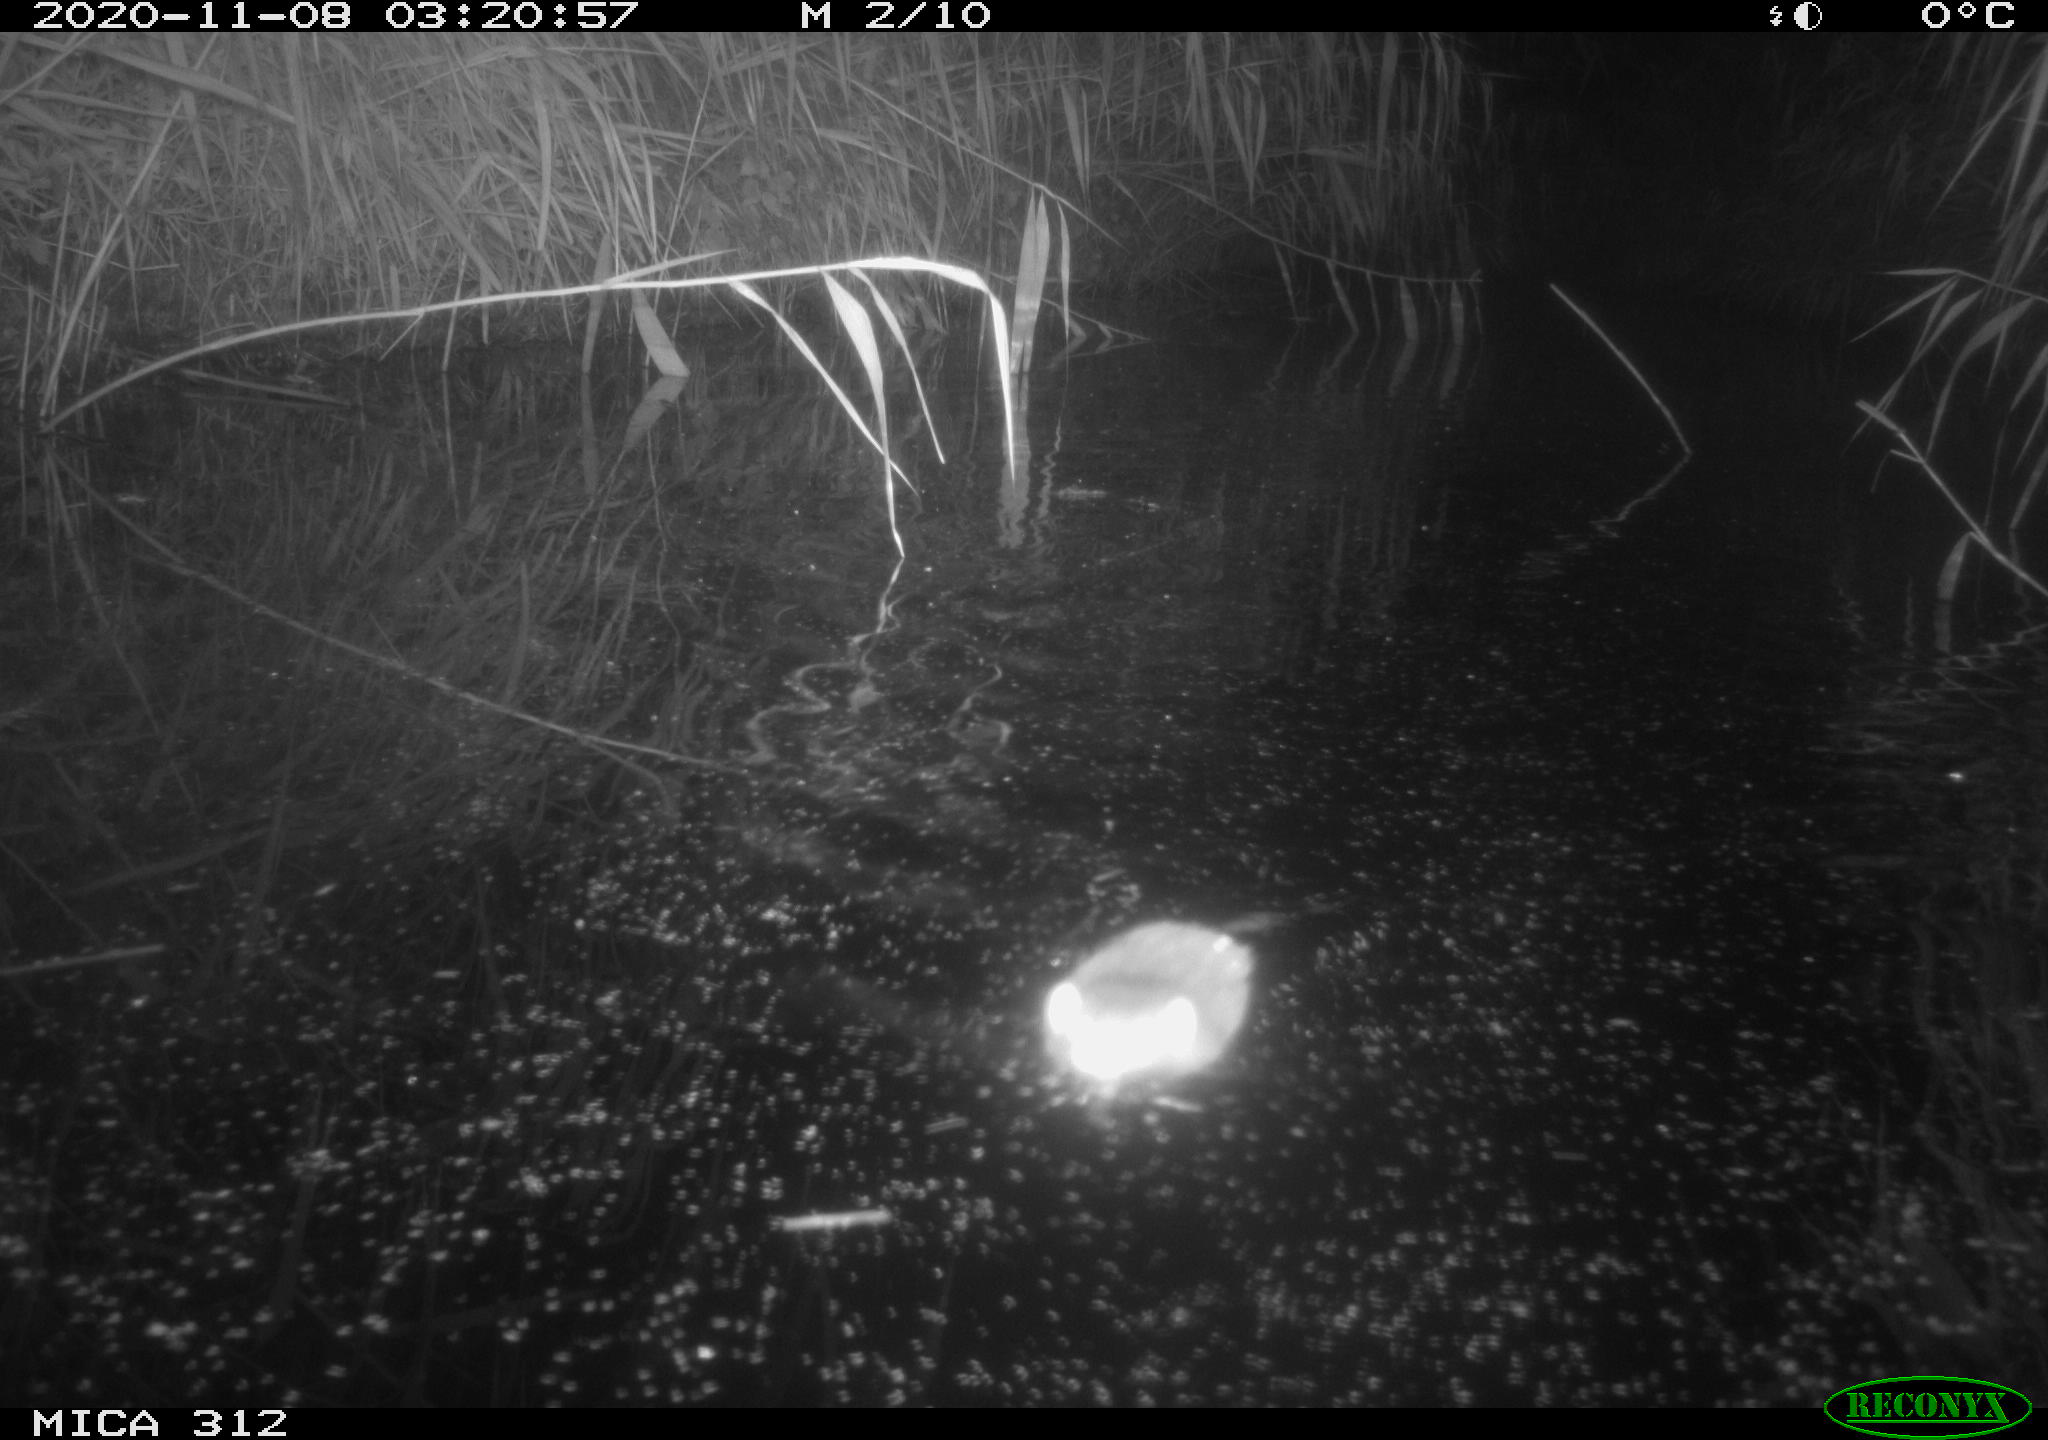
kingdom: Animalia
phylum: Chordata
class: Mammalia
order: Rodentia
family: Muridae
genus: Rattus
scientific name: Rattus norvegicus
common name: Brown rat
